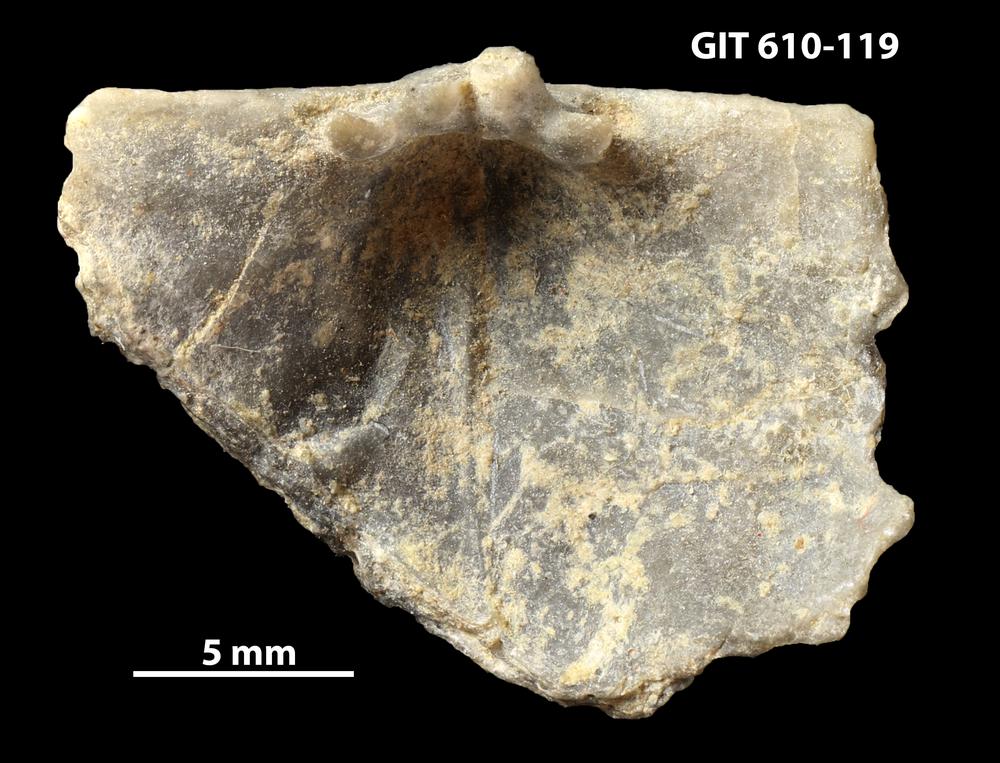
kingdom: Animalia
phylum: Brachiopoda
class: Rhynchonellata
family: Triplesiidae
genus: Oxoplecia
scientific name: Oxoplecia
